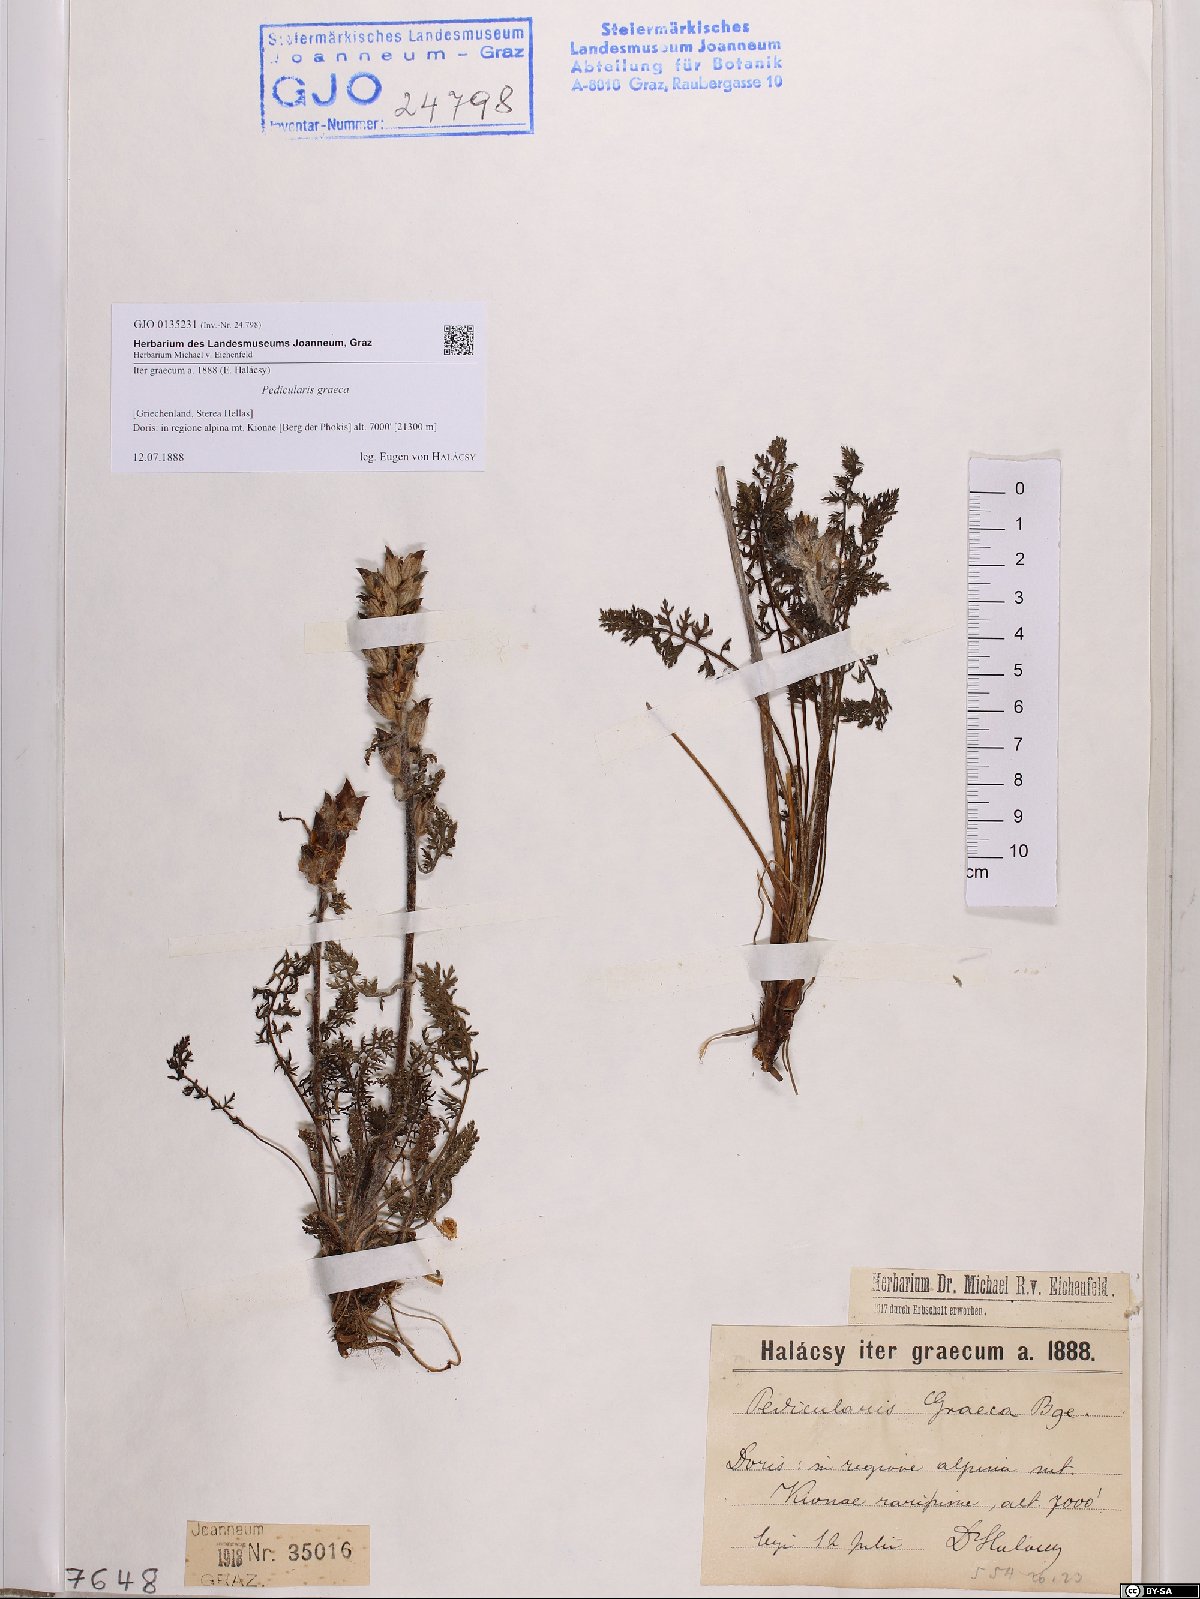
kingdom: Plantae
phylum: Tracheophyta
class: Magnoliopsida
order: Lamiales
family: Orobanchaceae
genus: Pedicularis
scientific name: Pedicularis graeca
